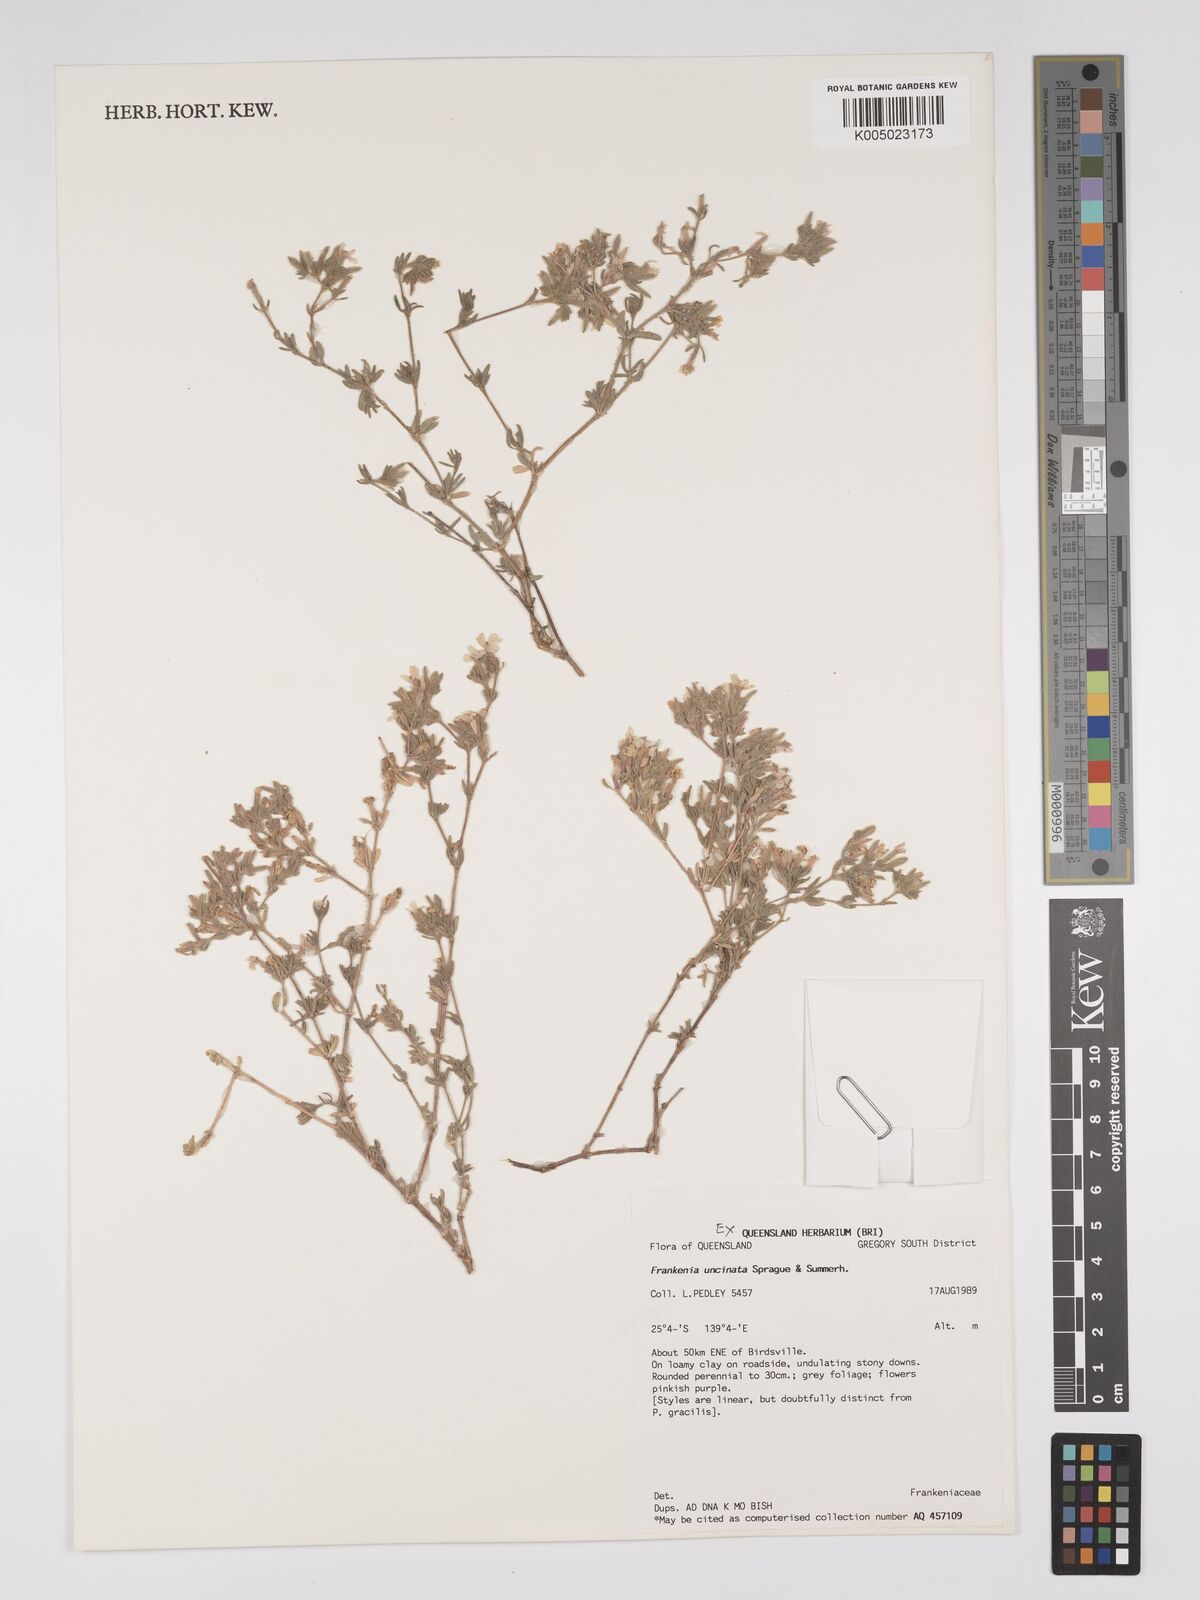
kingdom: Plantae
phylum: Tracheophyta
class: Magnoliopsida
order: Caryophyllales
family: Frankeniaceae
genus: Frankenia
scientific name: Frankenia uncinata
